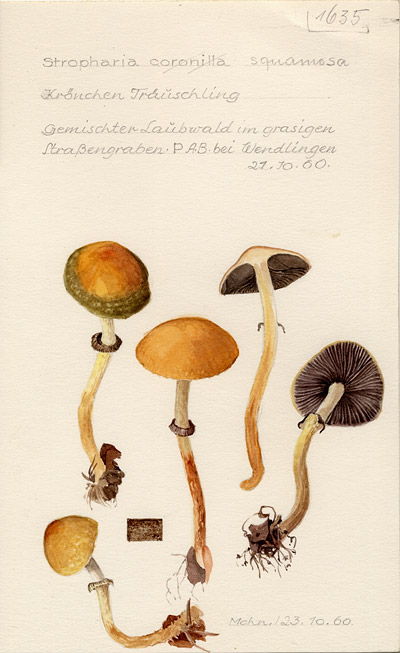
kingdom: Fungi
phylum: Basidiomycota
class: Agaricomycetes
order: Agaricales
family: Strophariaceae
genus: Leratiomyces
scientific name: Leratiomyces squamosus
